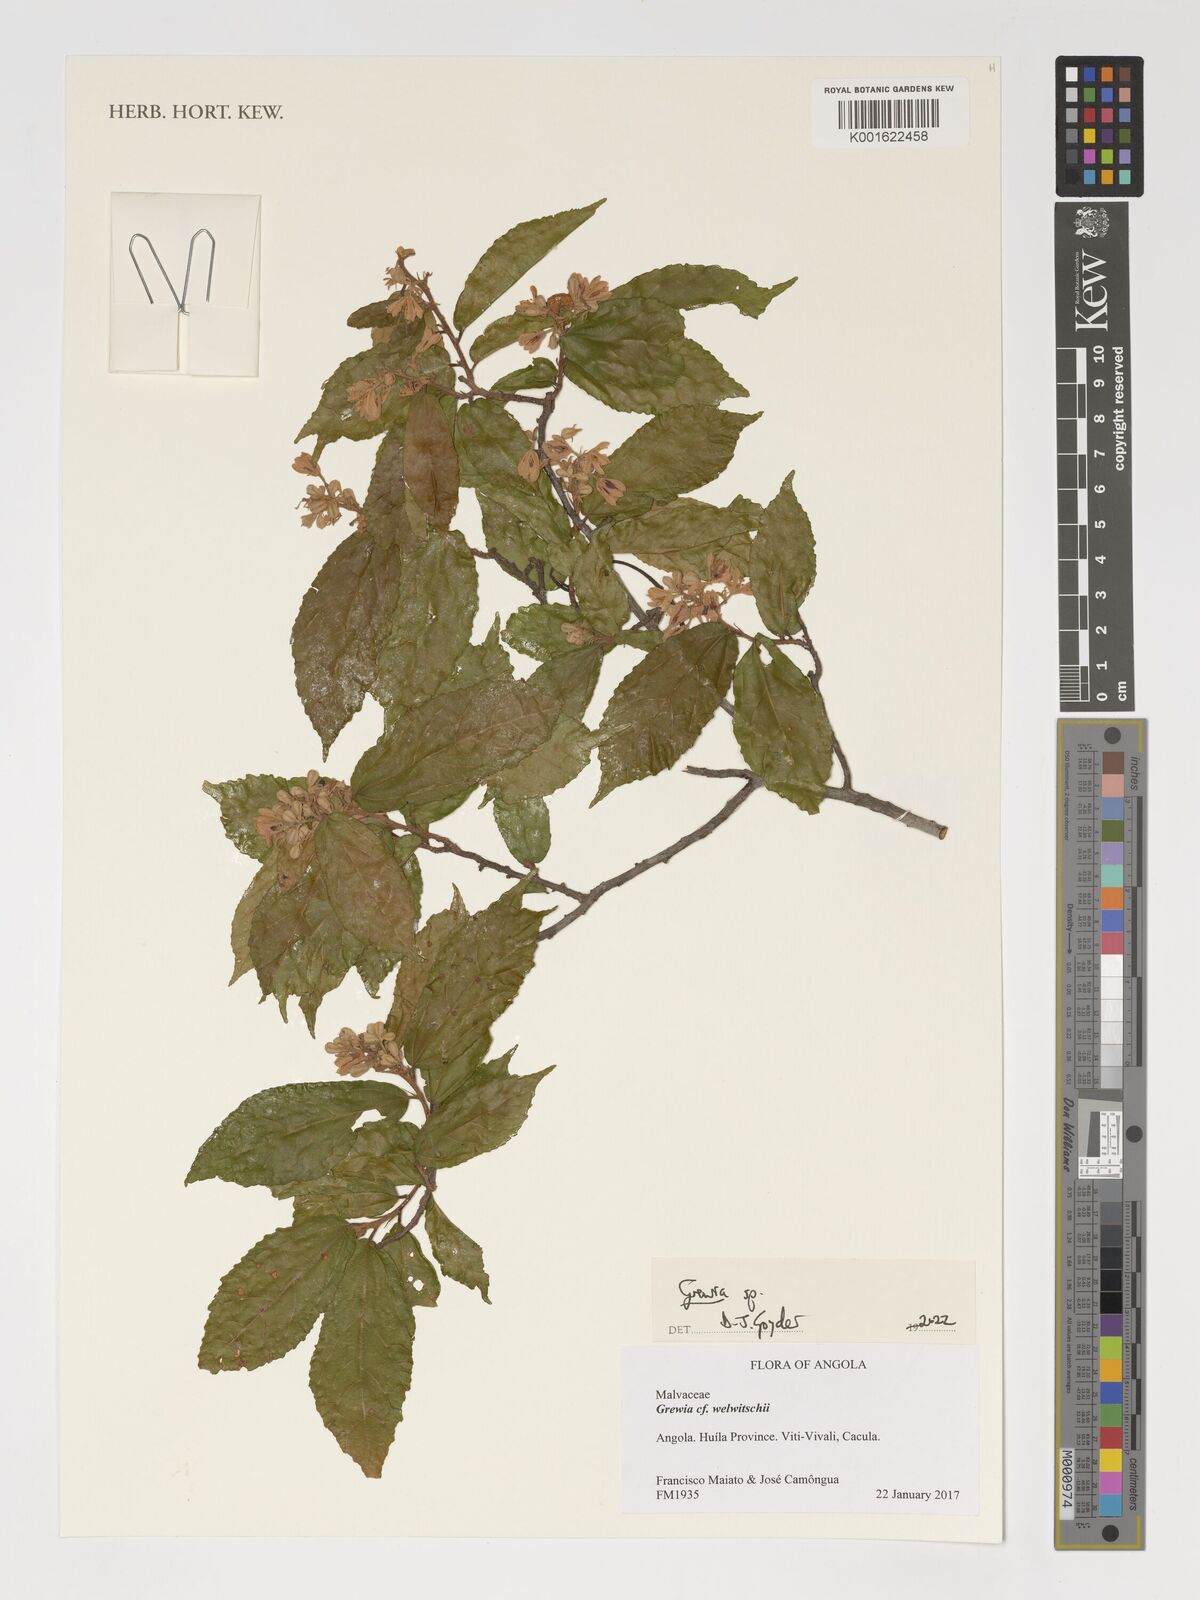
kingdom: Plantae
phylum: Tracheophyta
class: Magnoliopsida
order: Malvales
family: Malvaceae
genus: Grewia
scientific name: Grewia
